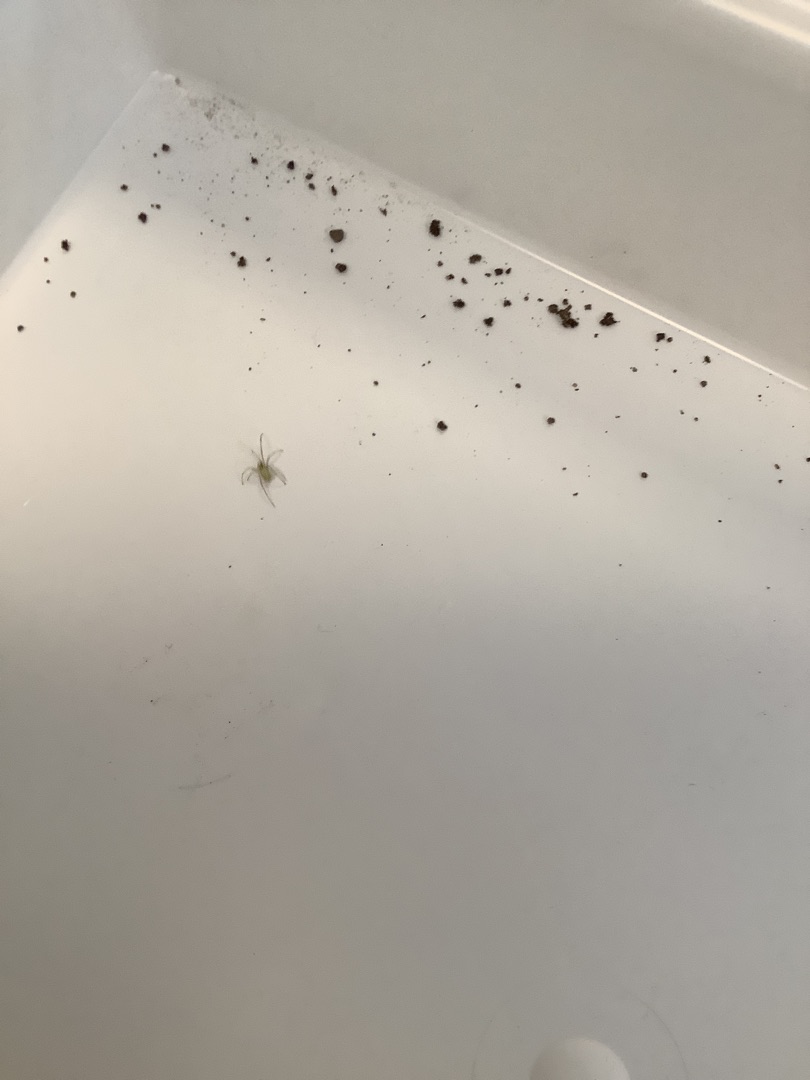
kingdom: Animalia
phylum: Arthropoda
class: Arachnida
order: Araneae
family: Theridiidae
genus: Enoplognatha
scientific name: Enoplognatha
